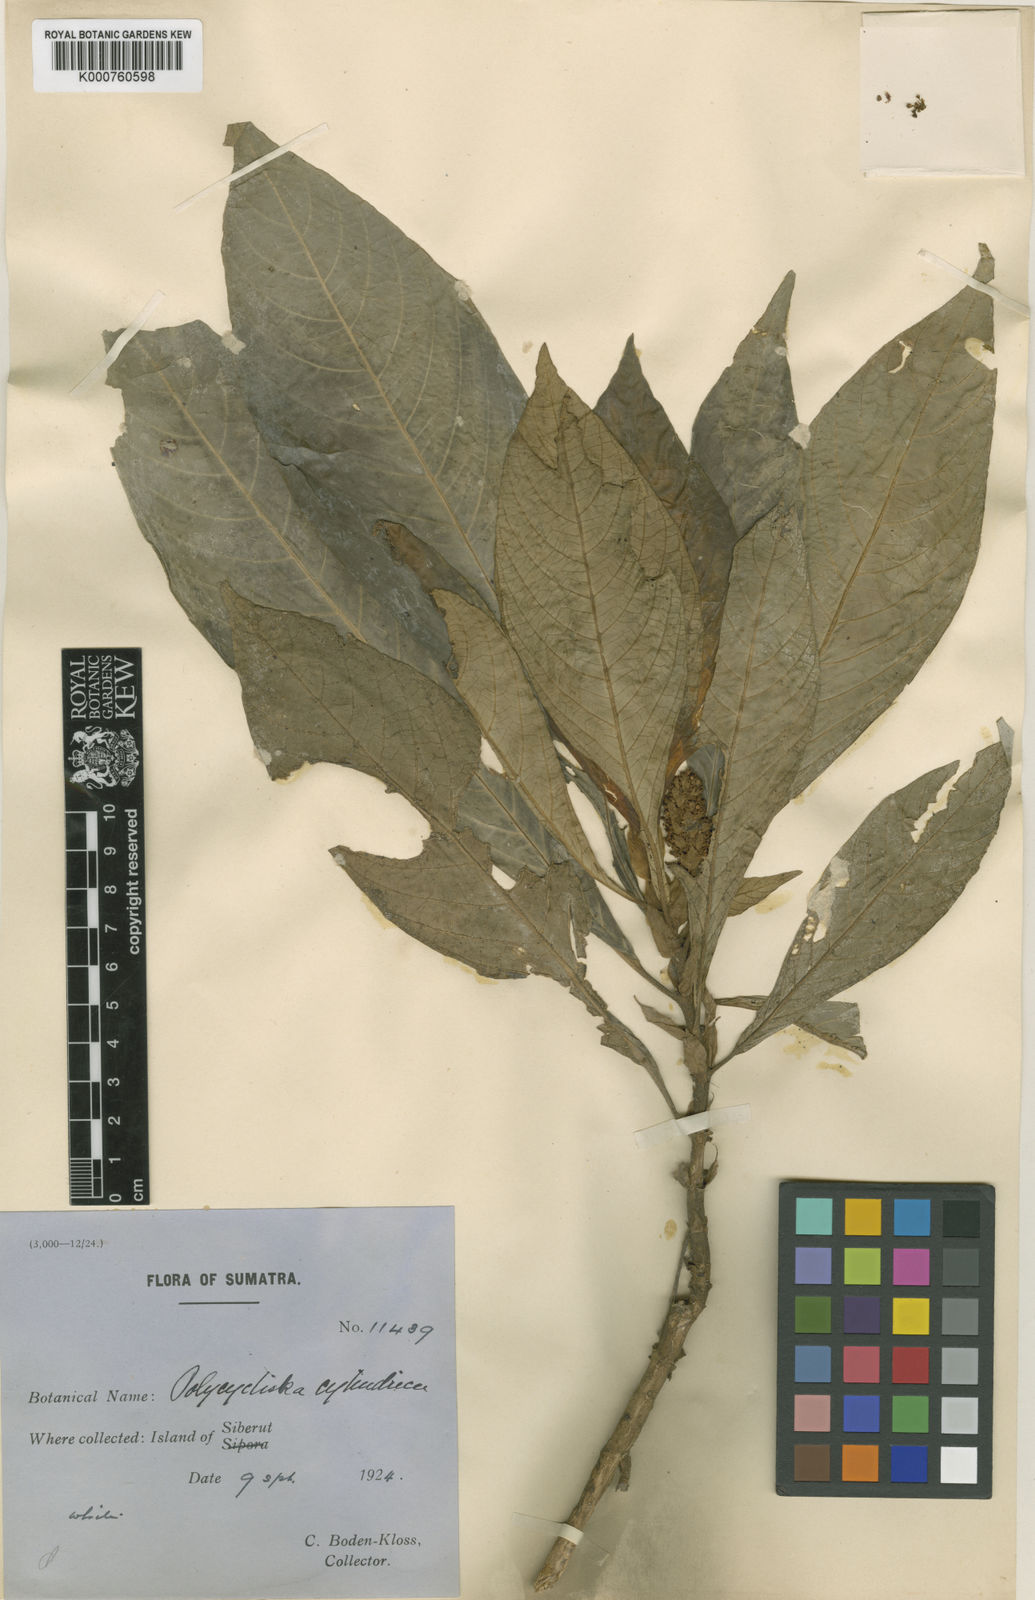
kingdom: Plantae
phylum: Tracheophyta
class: Magnoliopsida
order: Gentianales
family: Rubiaceae
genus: Lerchea
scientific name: Lerchea bracteata
